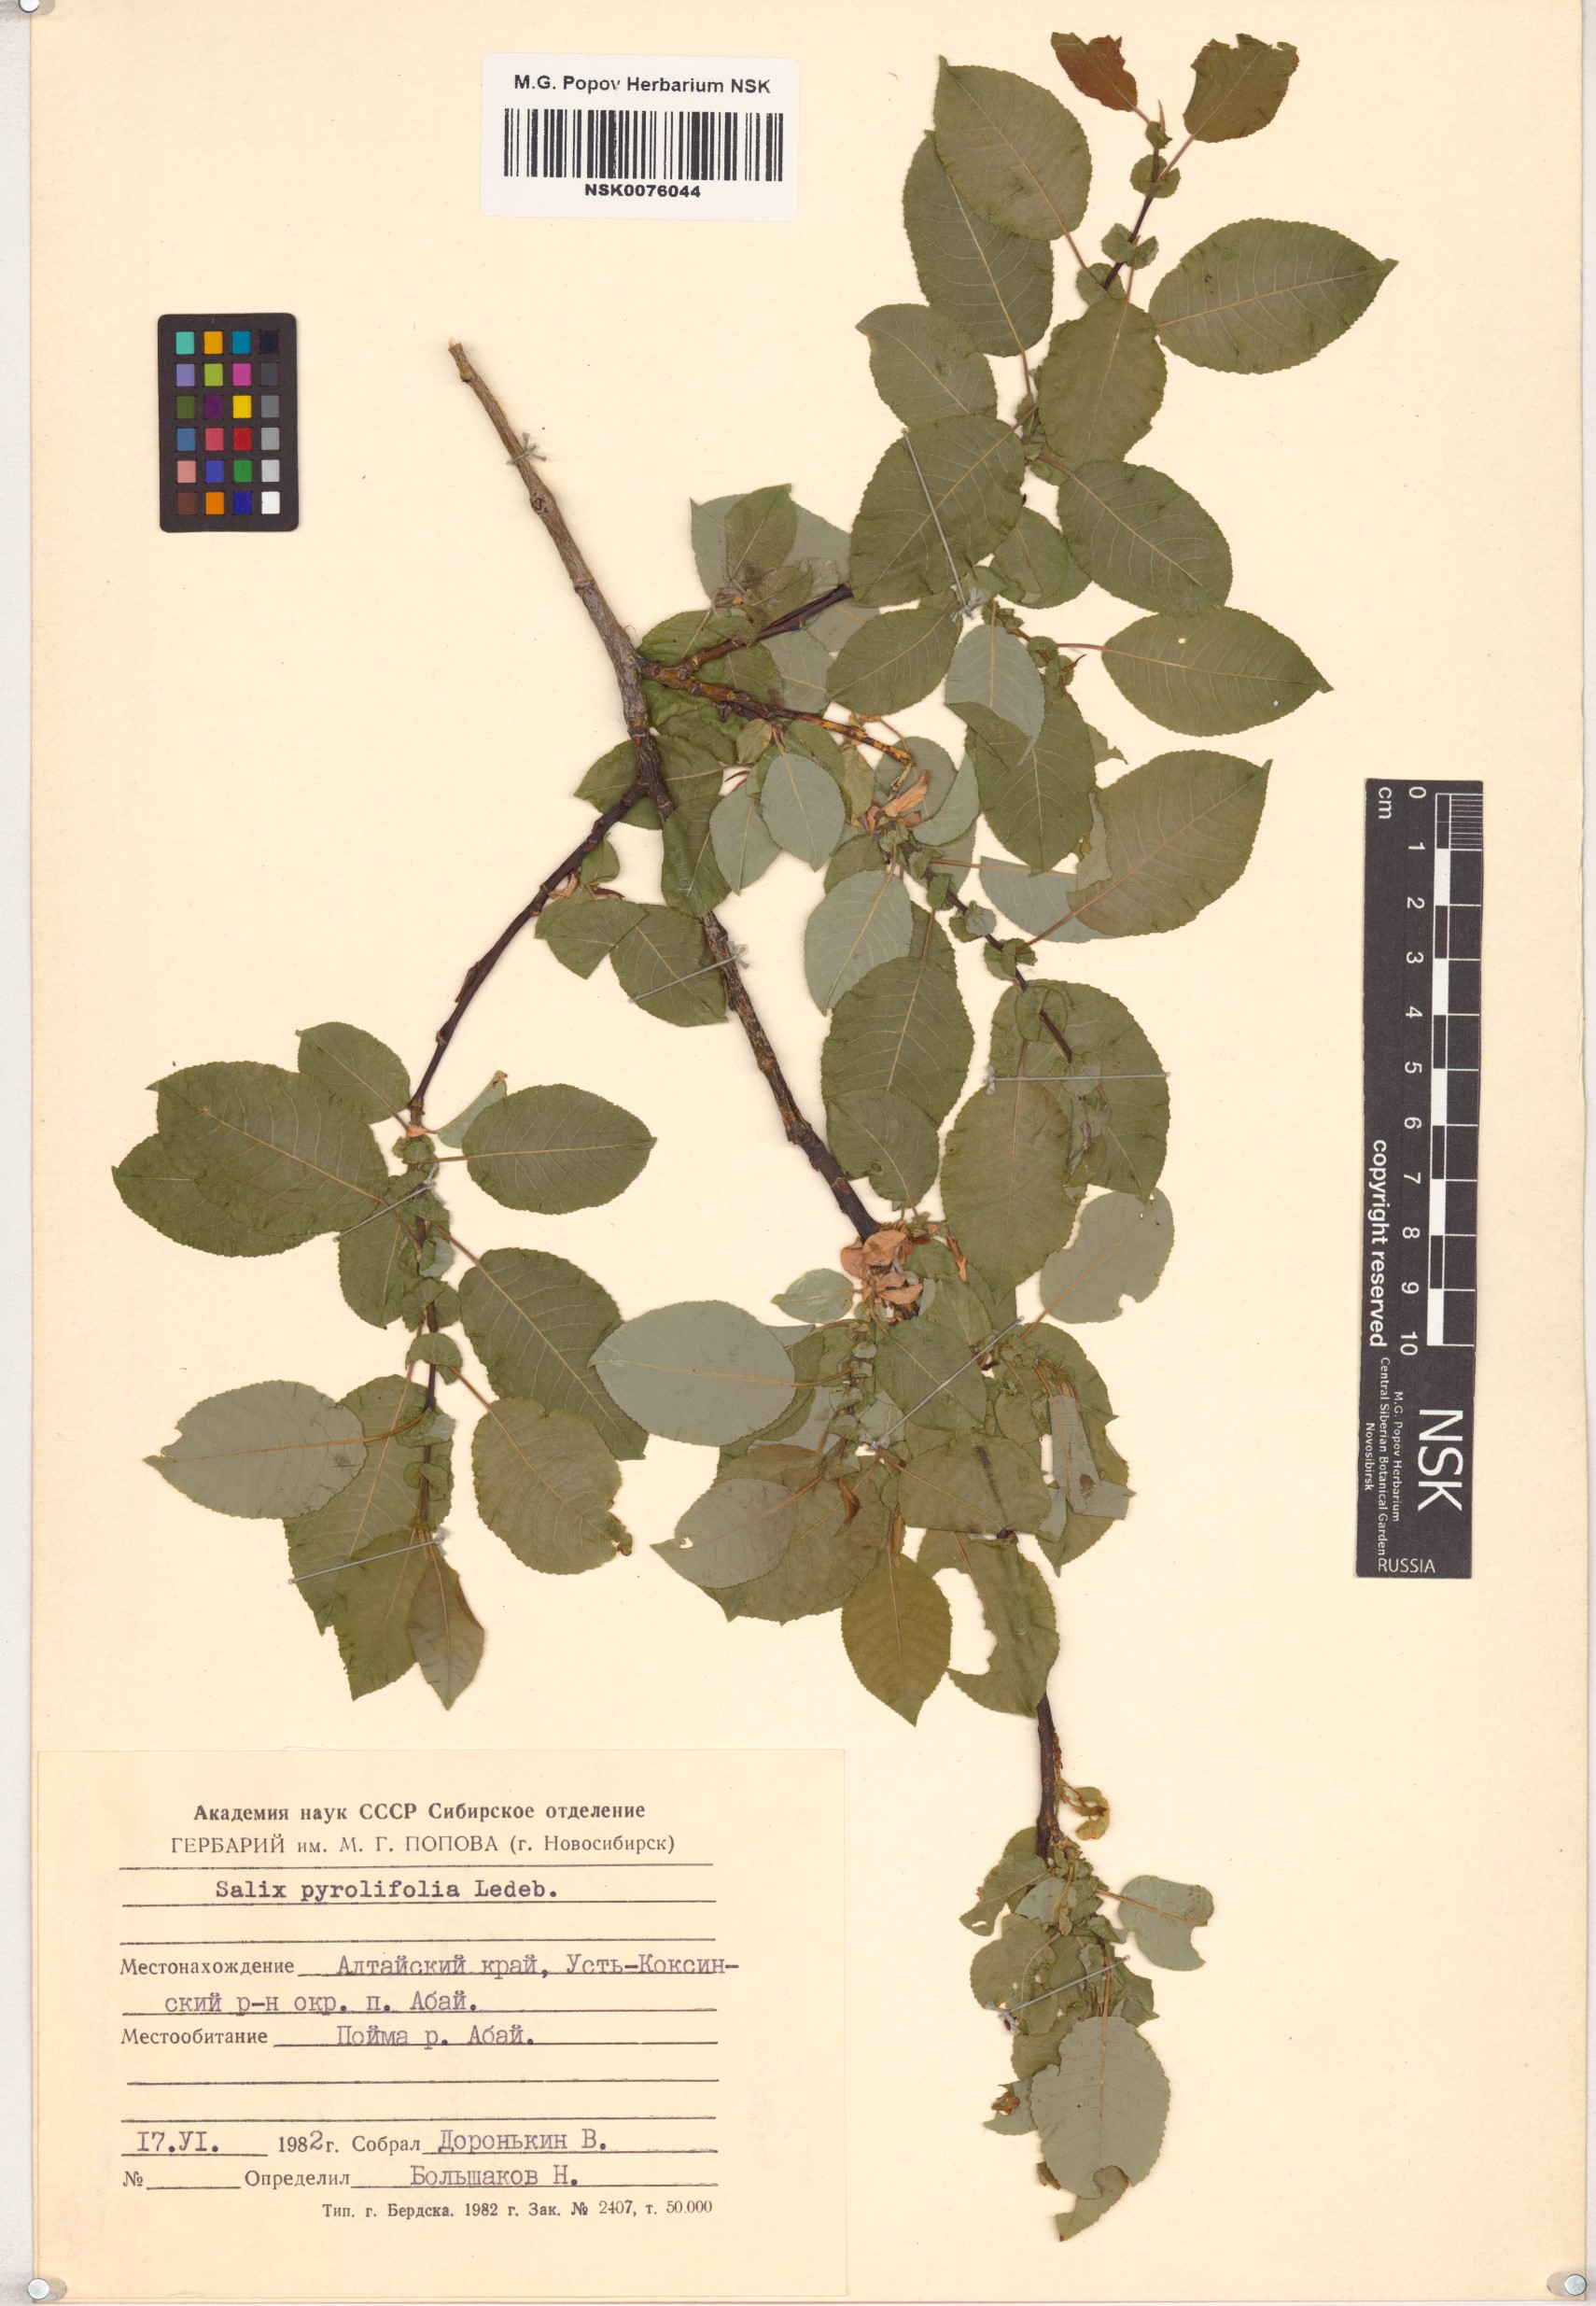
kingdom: Plantae
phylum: Tracheophyta
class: Magnoliopsida
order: Malpighiales
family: Salicaceae
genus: Salix
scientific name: Salix pyrolifolia
